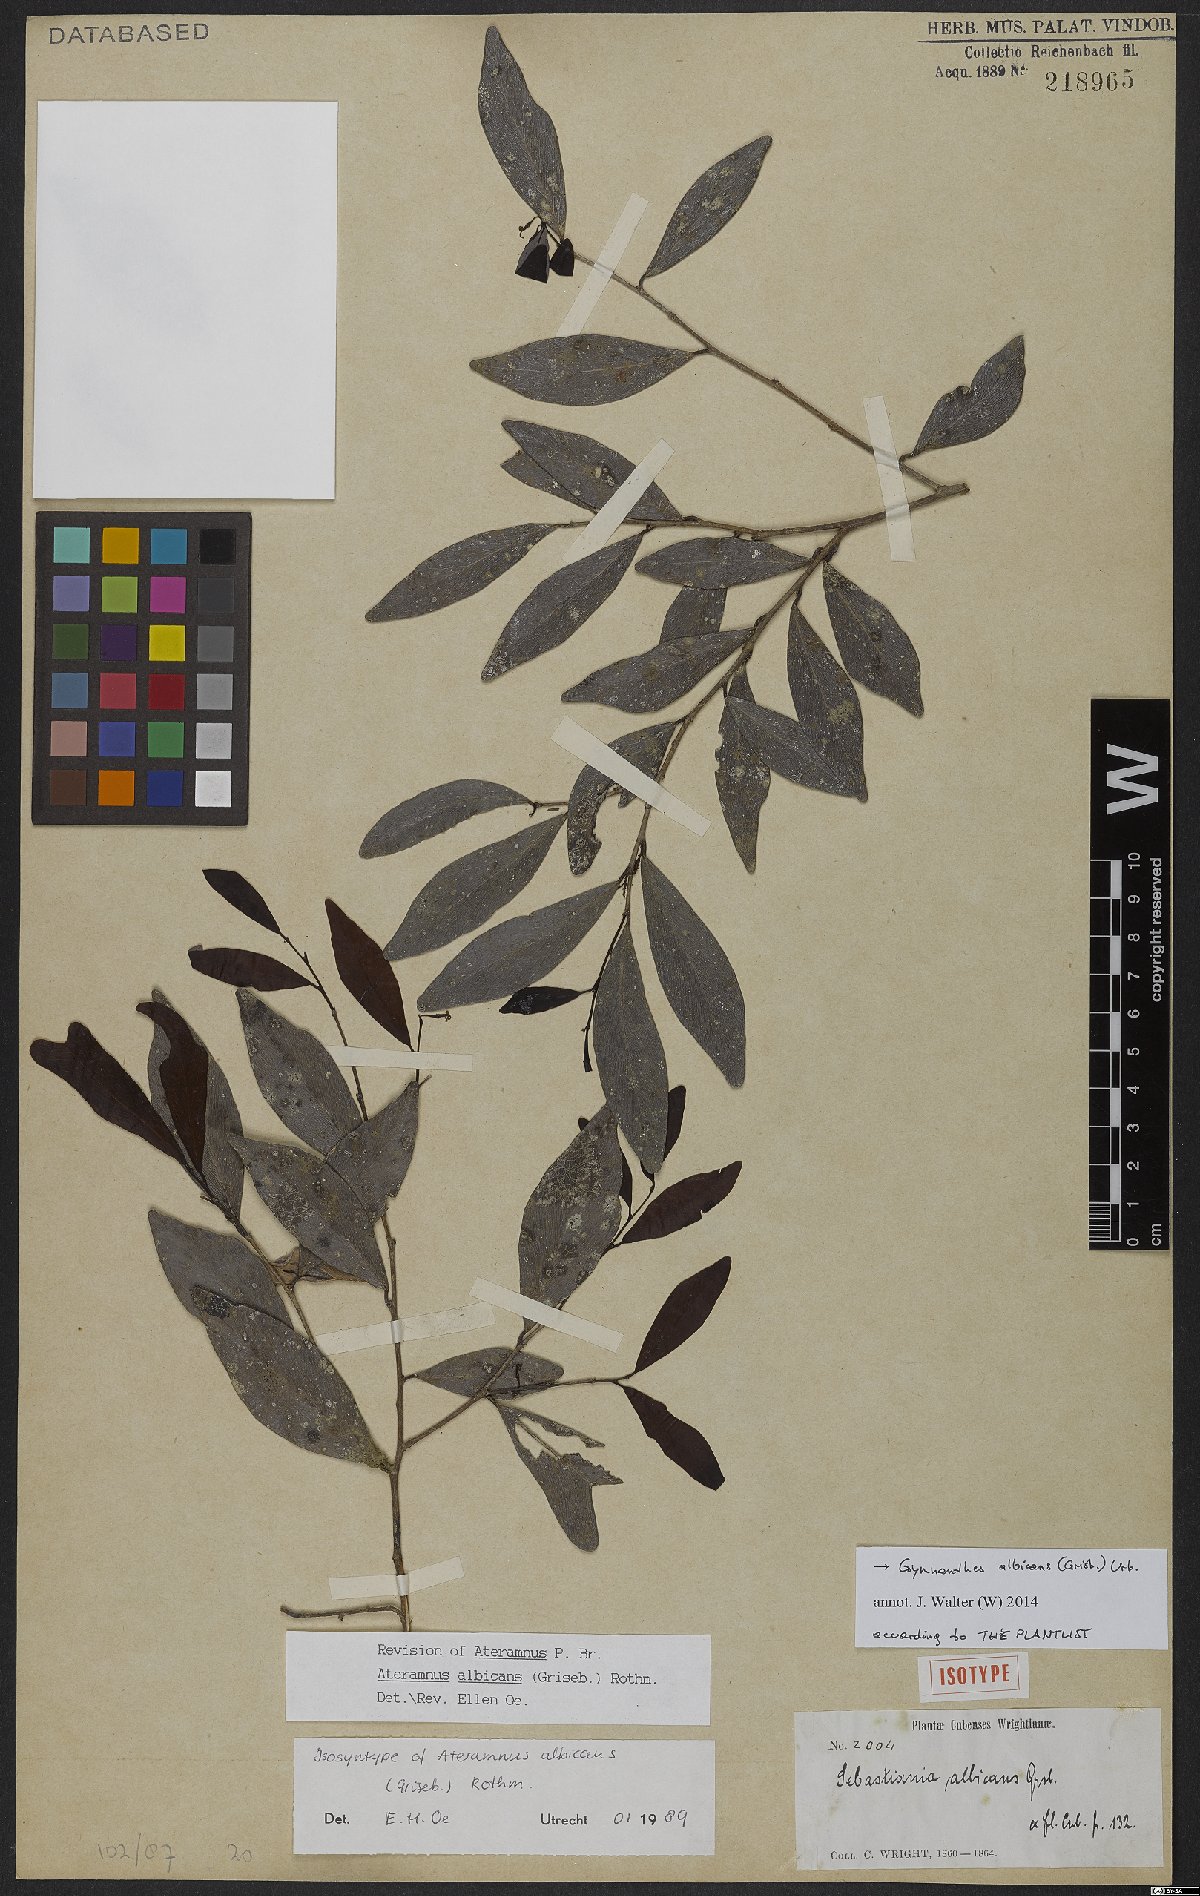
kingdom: Plantae
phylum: Tracheophyta
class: Magnoliopsida
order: Malpighiales
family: Euphorbiaceae
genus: Gymnanthes
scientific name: Gymnanthes albicans
